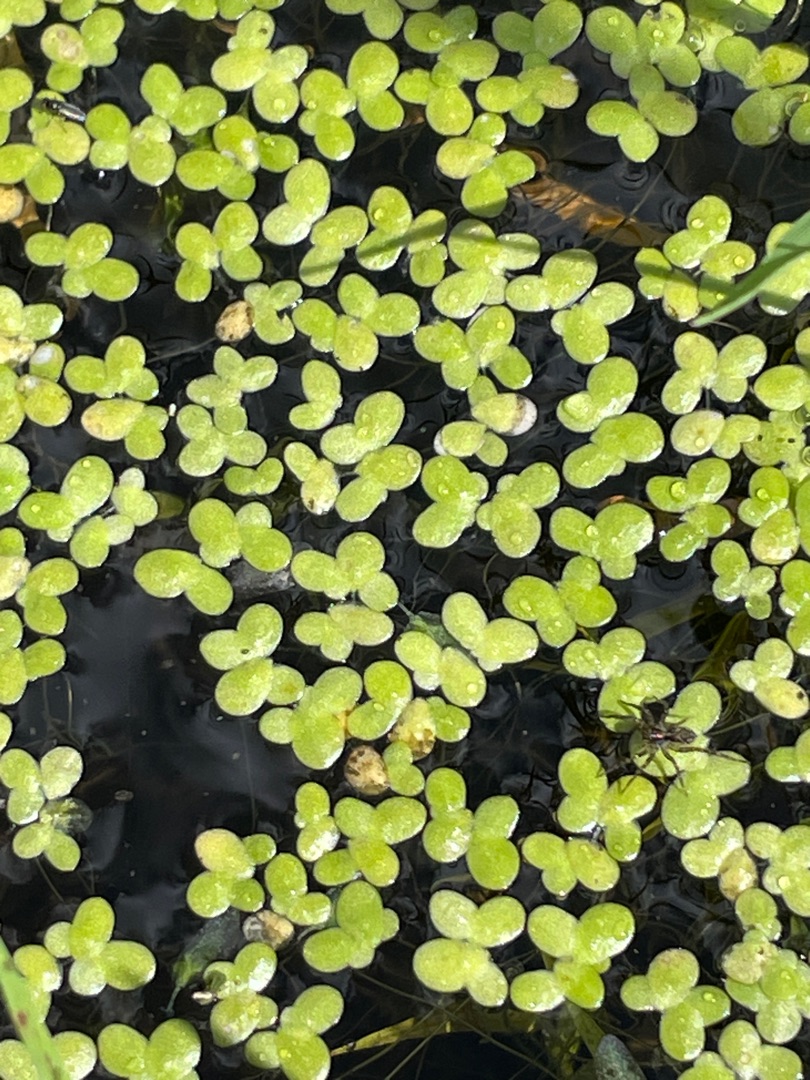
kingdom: Plantae
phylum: Tracheophyta
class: Liliopsida
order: Alismatales
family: Araceae
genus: Lemna
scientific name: Lemna minor
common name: Liden andemad
